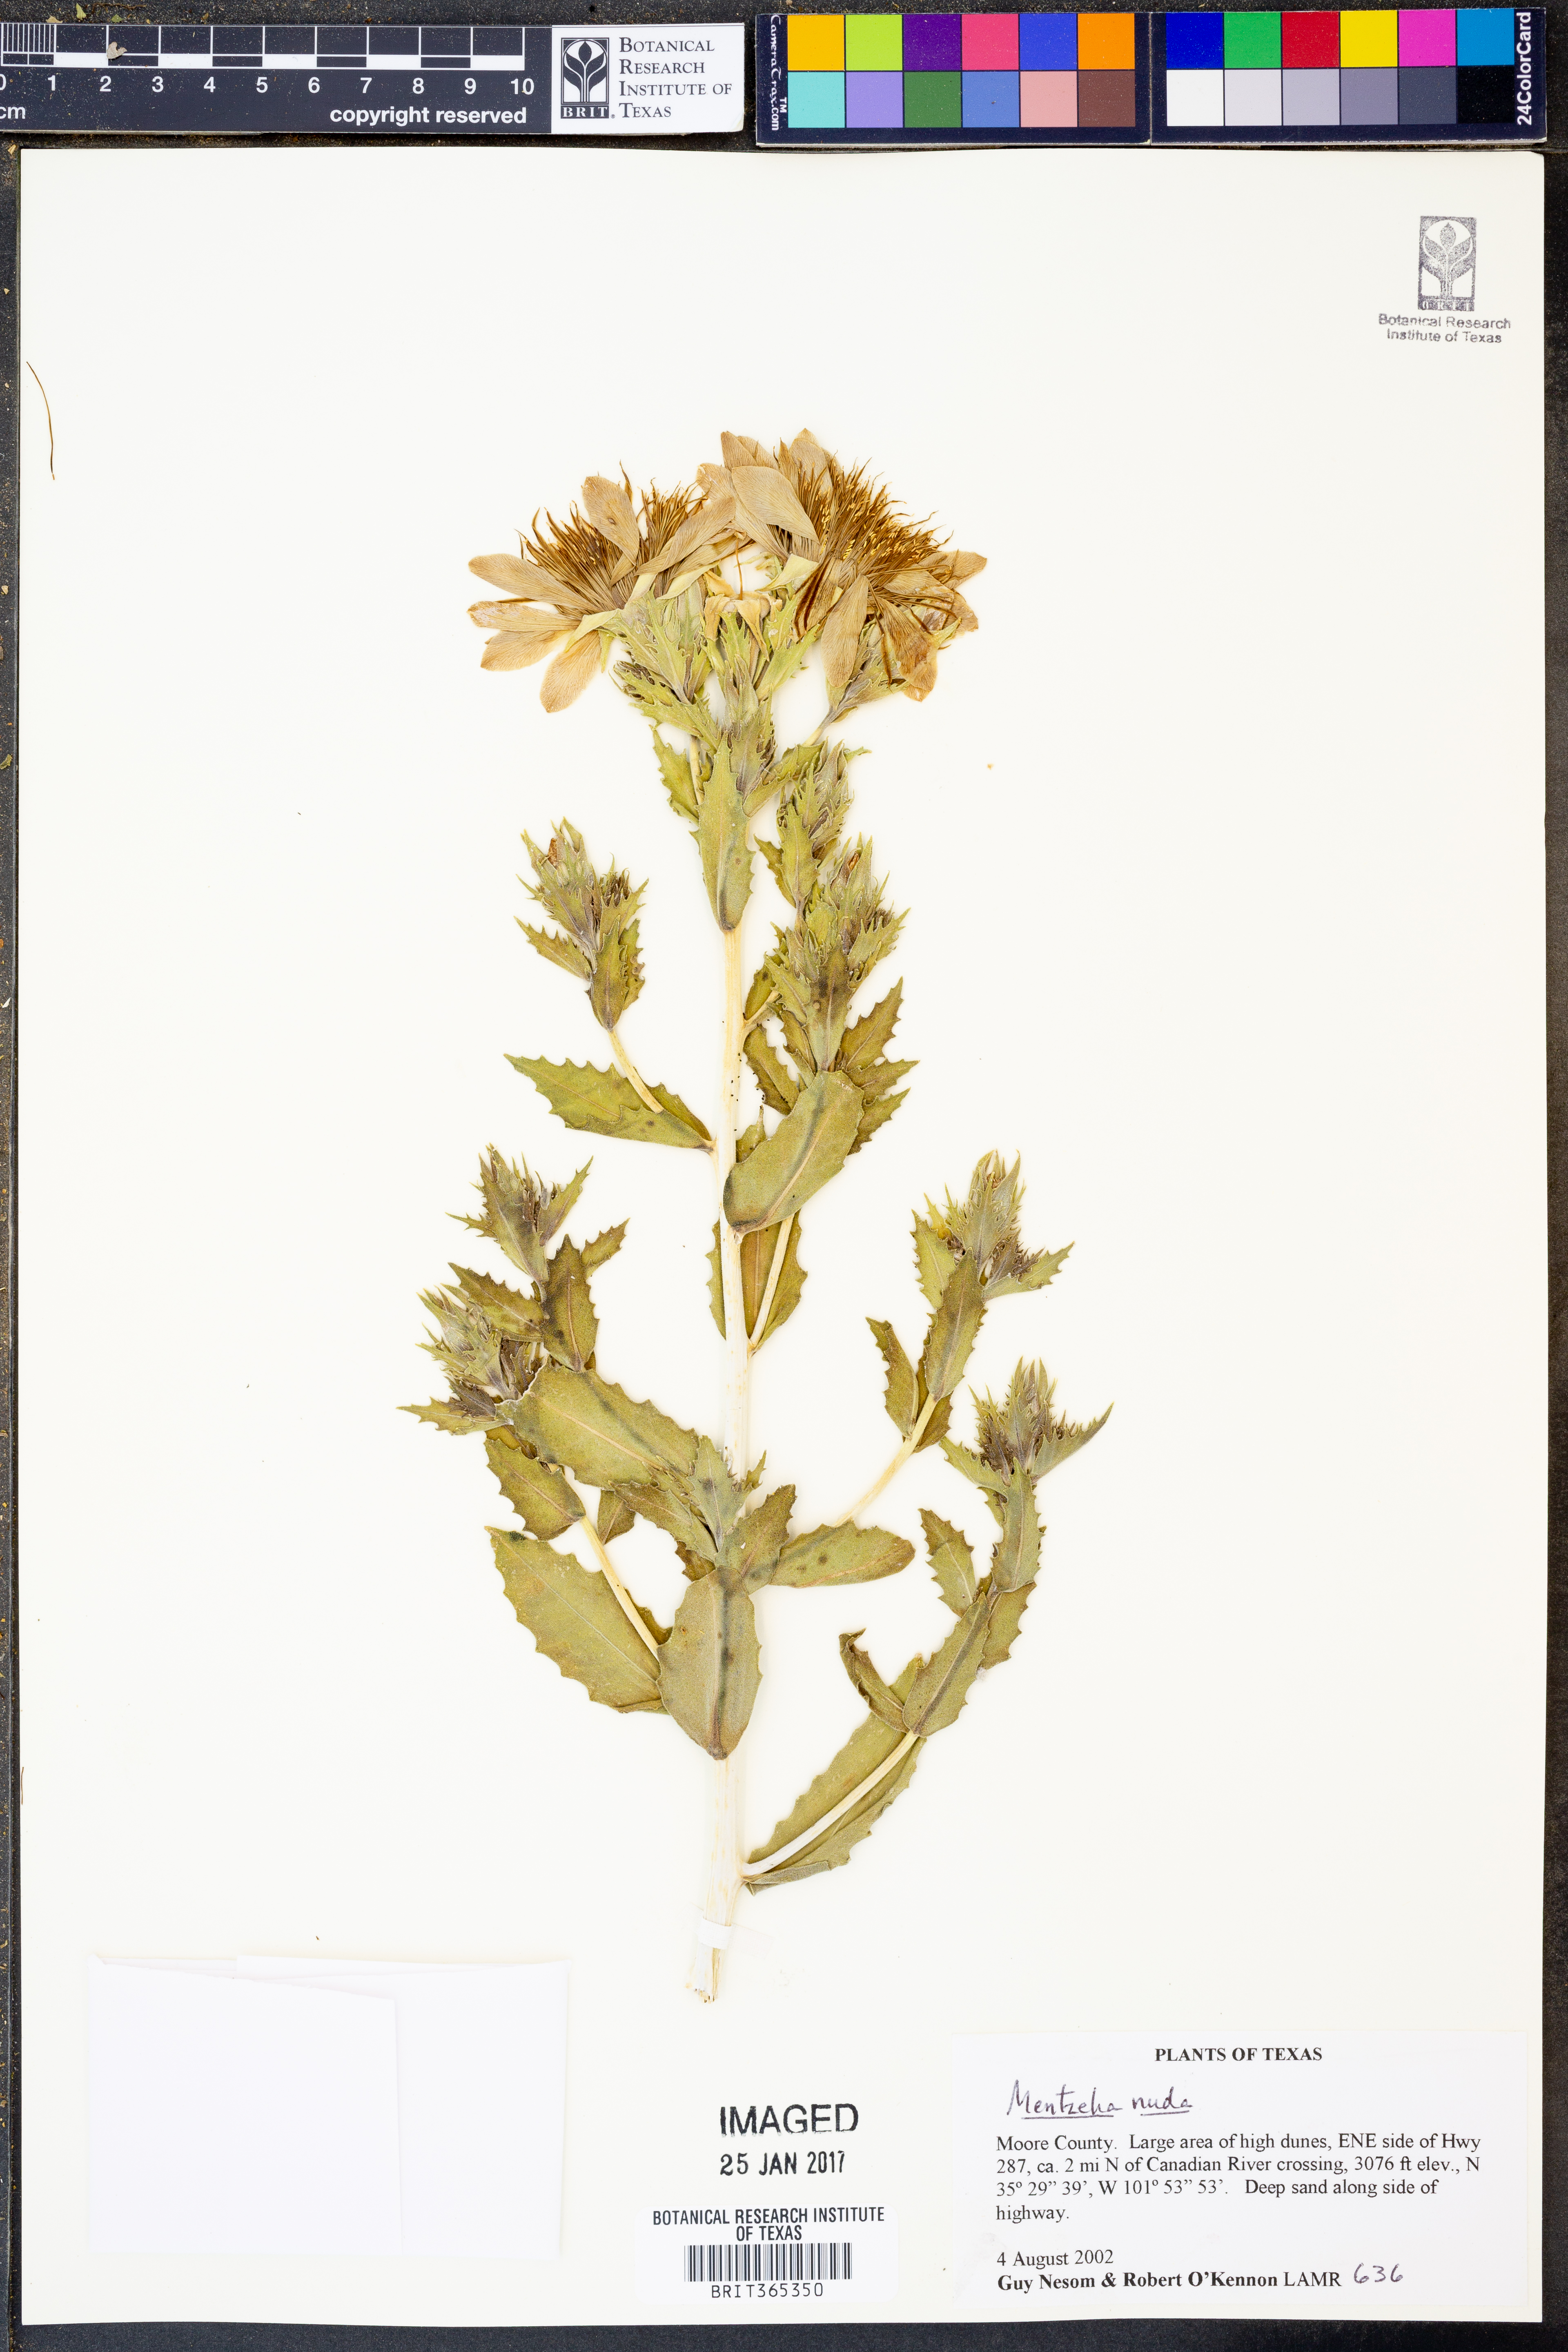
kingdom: Plantae
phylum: Tracheophyta
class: Magnoliopsida
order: Cornales
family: Loasaceae
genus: Mentzelia
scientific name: Mentzelia nuda
